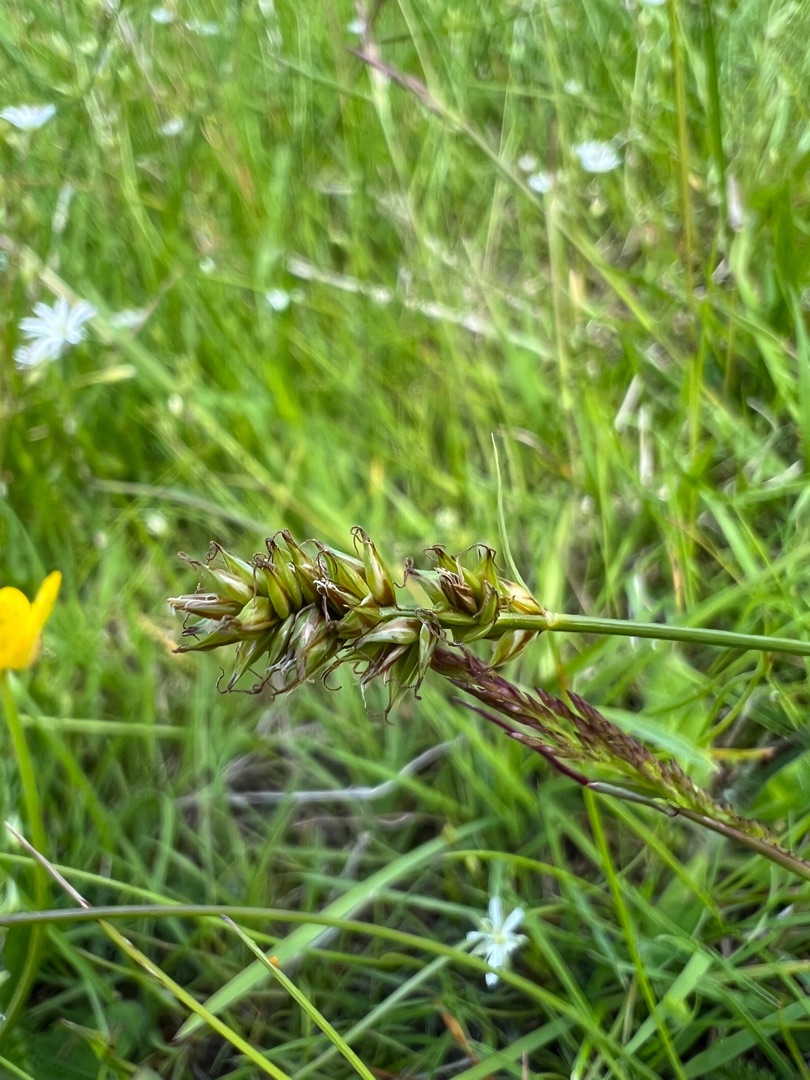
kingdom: Plantae
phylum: Tracheophyta
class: Liliopsida
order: Poales
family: Cyperaceae
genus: Carex
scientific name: Carex pairae
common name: Pigget star
